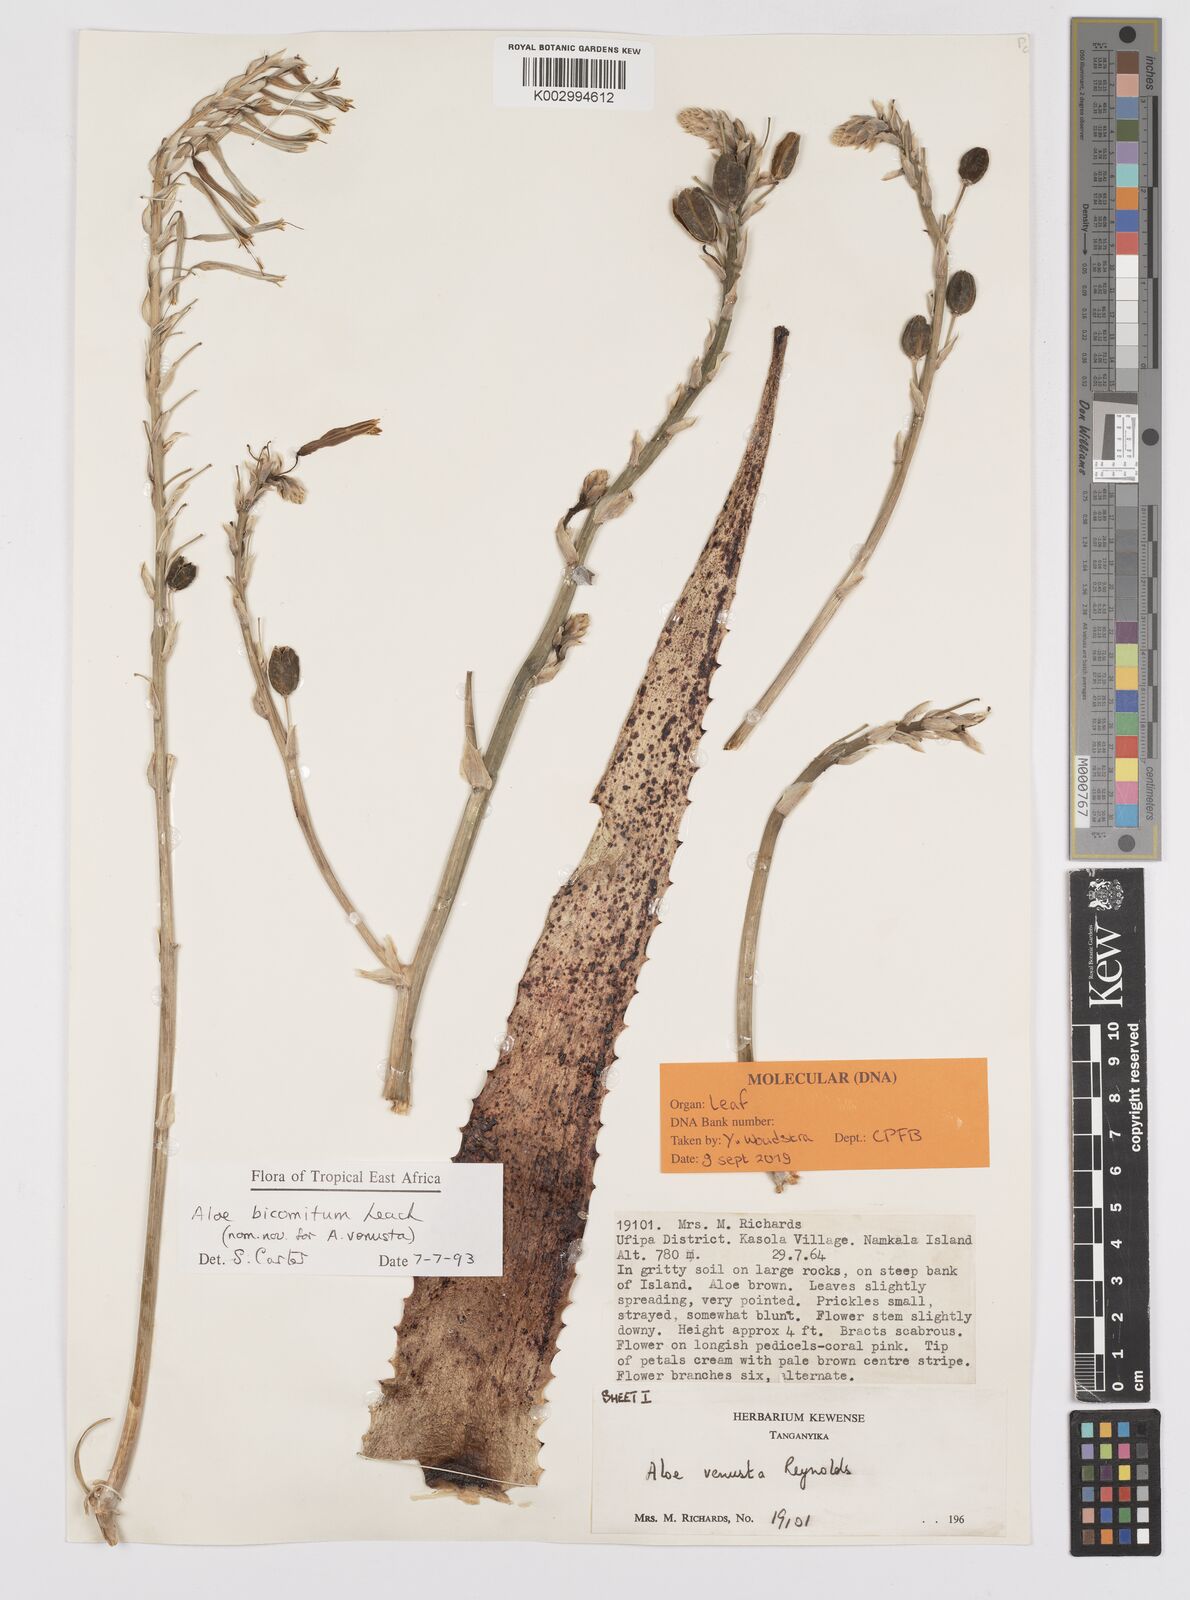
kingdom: Plantae
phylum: Tracheophyta
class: Liliopsida
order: Asparagales
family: Asphodelaceae
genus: Aloe
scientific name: Aloe bicomitum
